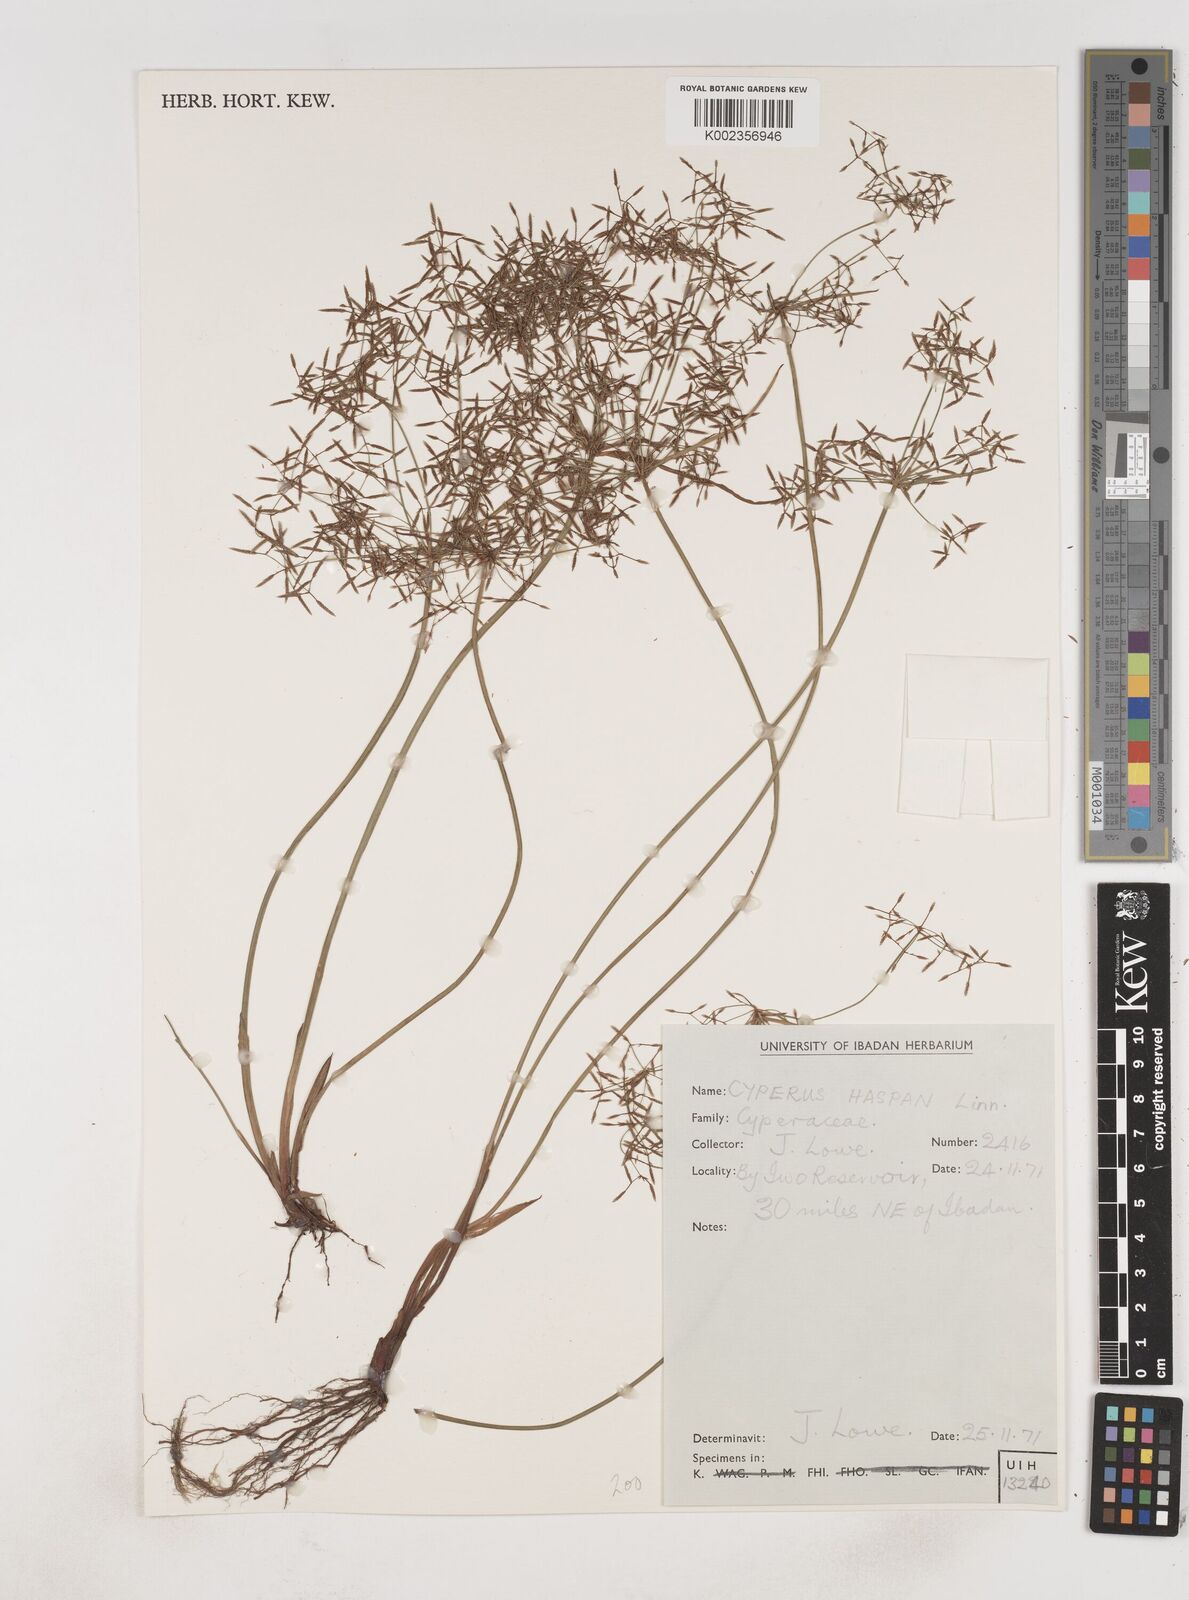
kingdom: Plantae
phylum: Tracheophyta
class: Liliopsida
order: Poales
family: Cyperaceae
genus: Cyperus
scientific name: Cyperus haspan
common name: Haspan flatsedge
